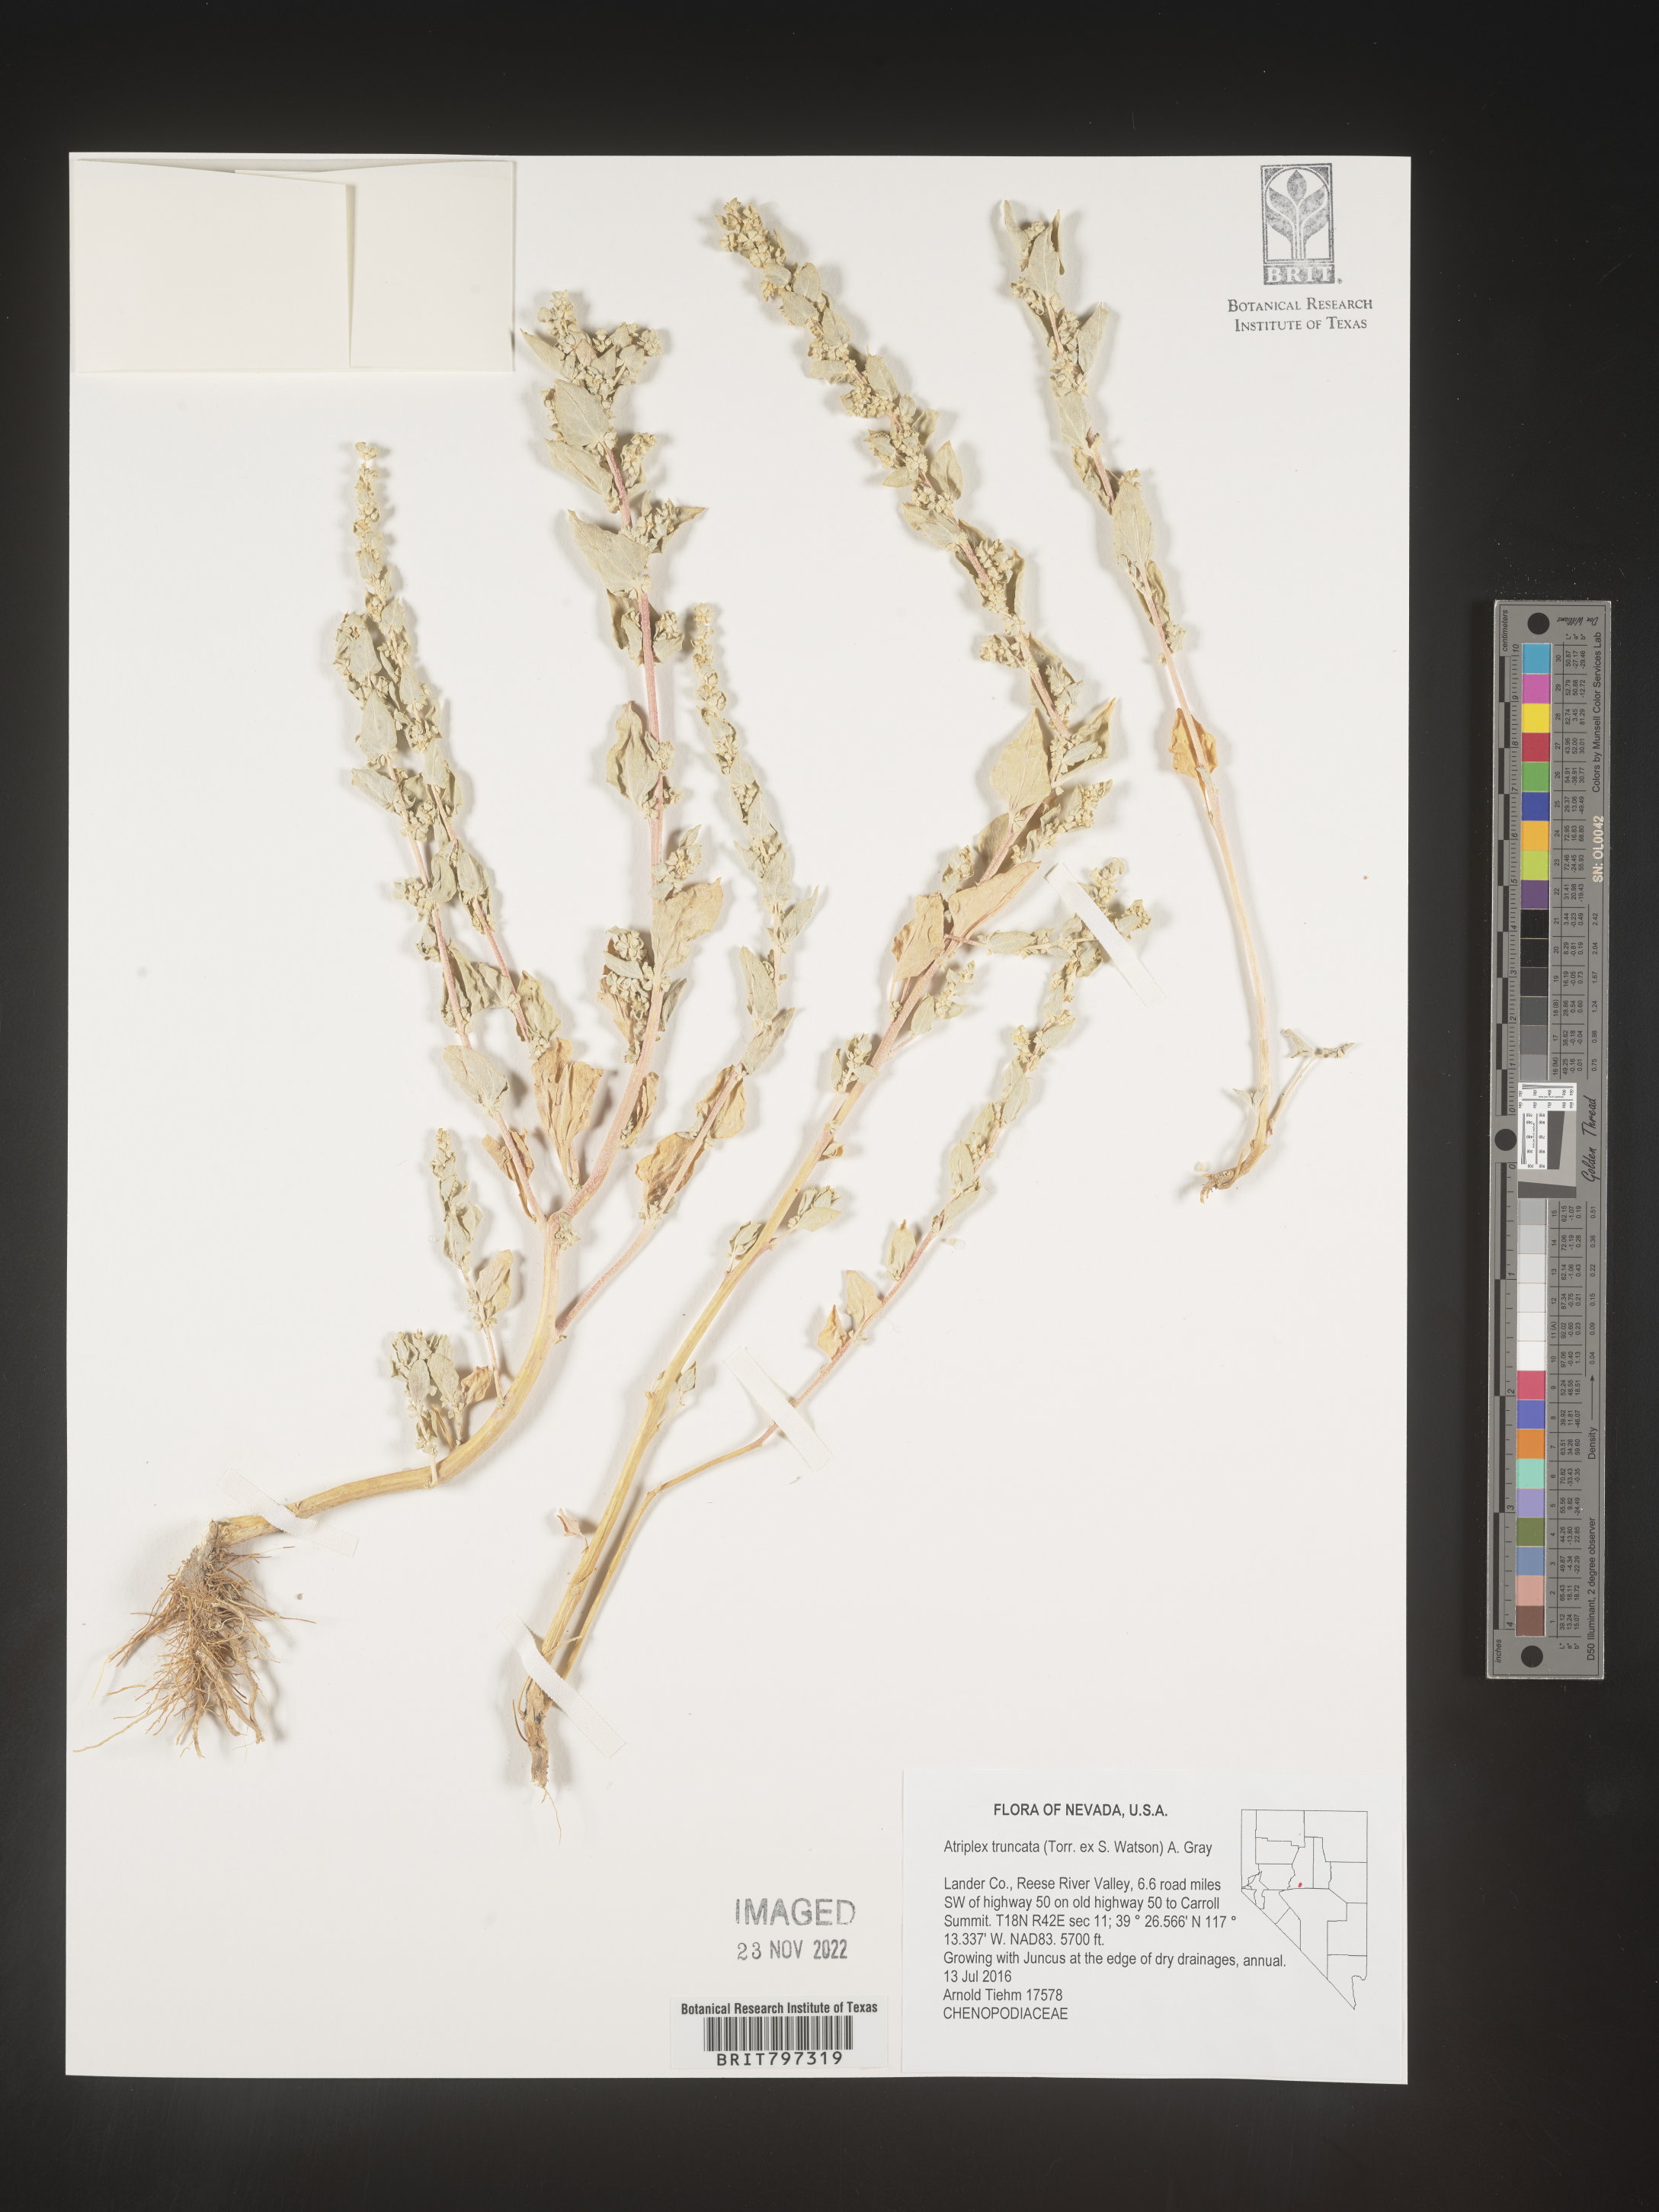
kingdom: Plantae
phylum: Tracheophyta
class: Magnoliopsida
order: Caryophyllales
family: Amaranthaceae
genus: Atriplex
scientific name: Atriplex
